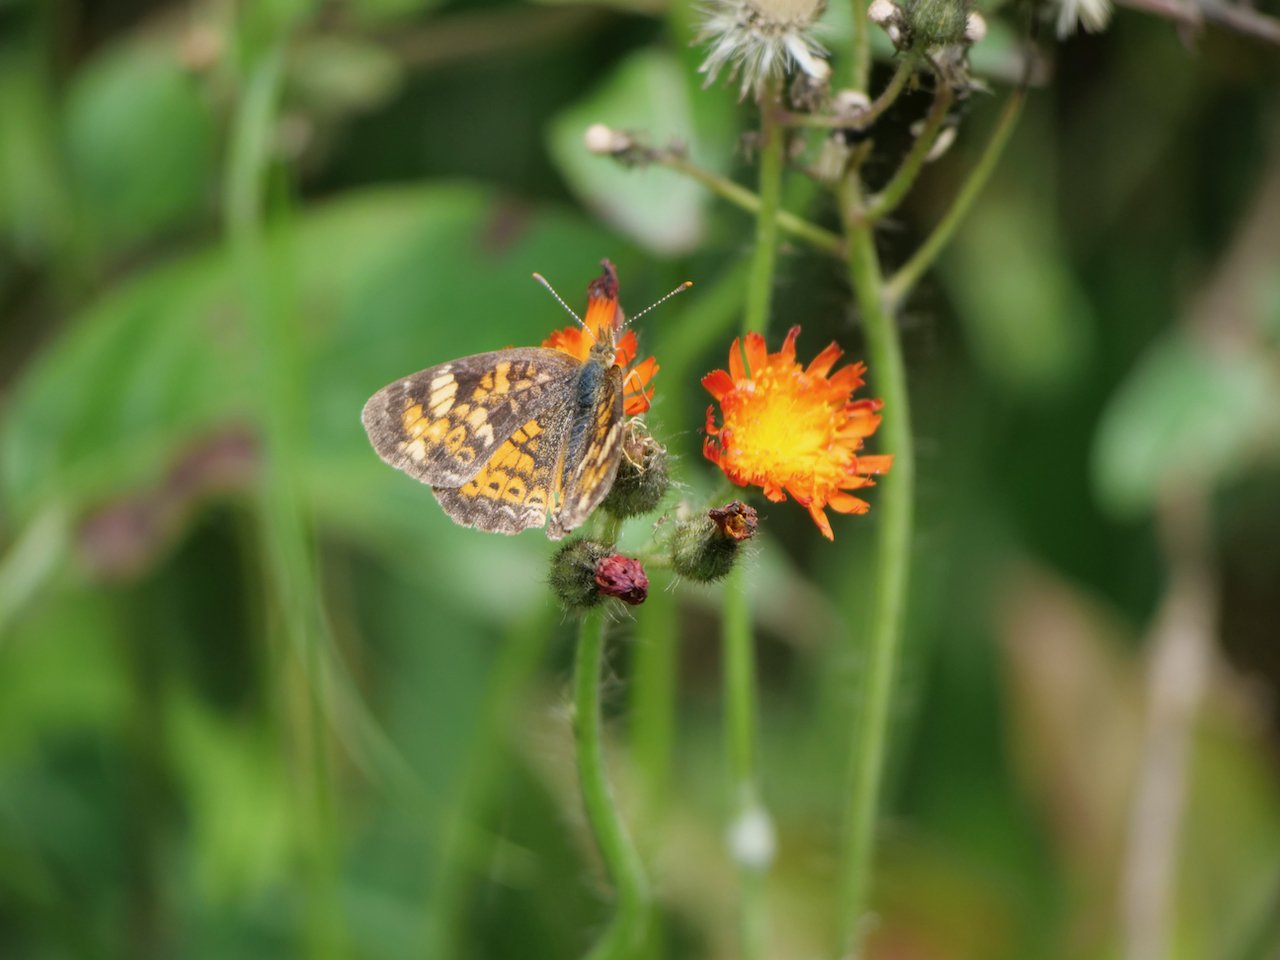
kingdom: Animalia
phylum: Arthropoda
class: Insecta
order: Lepidoptera
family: Nymphalidae
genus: Phyciodes
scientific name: Phyciodes tharos
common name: Northern Crescent
